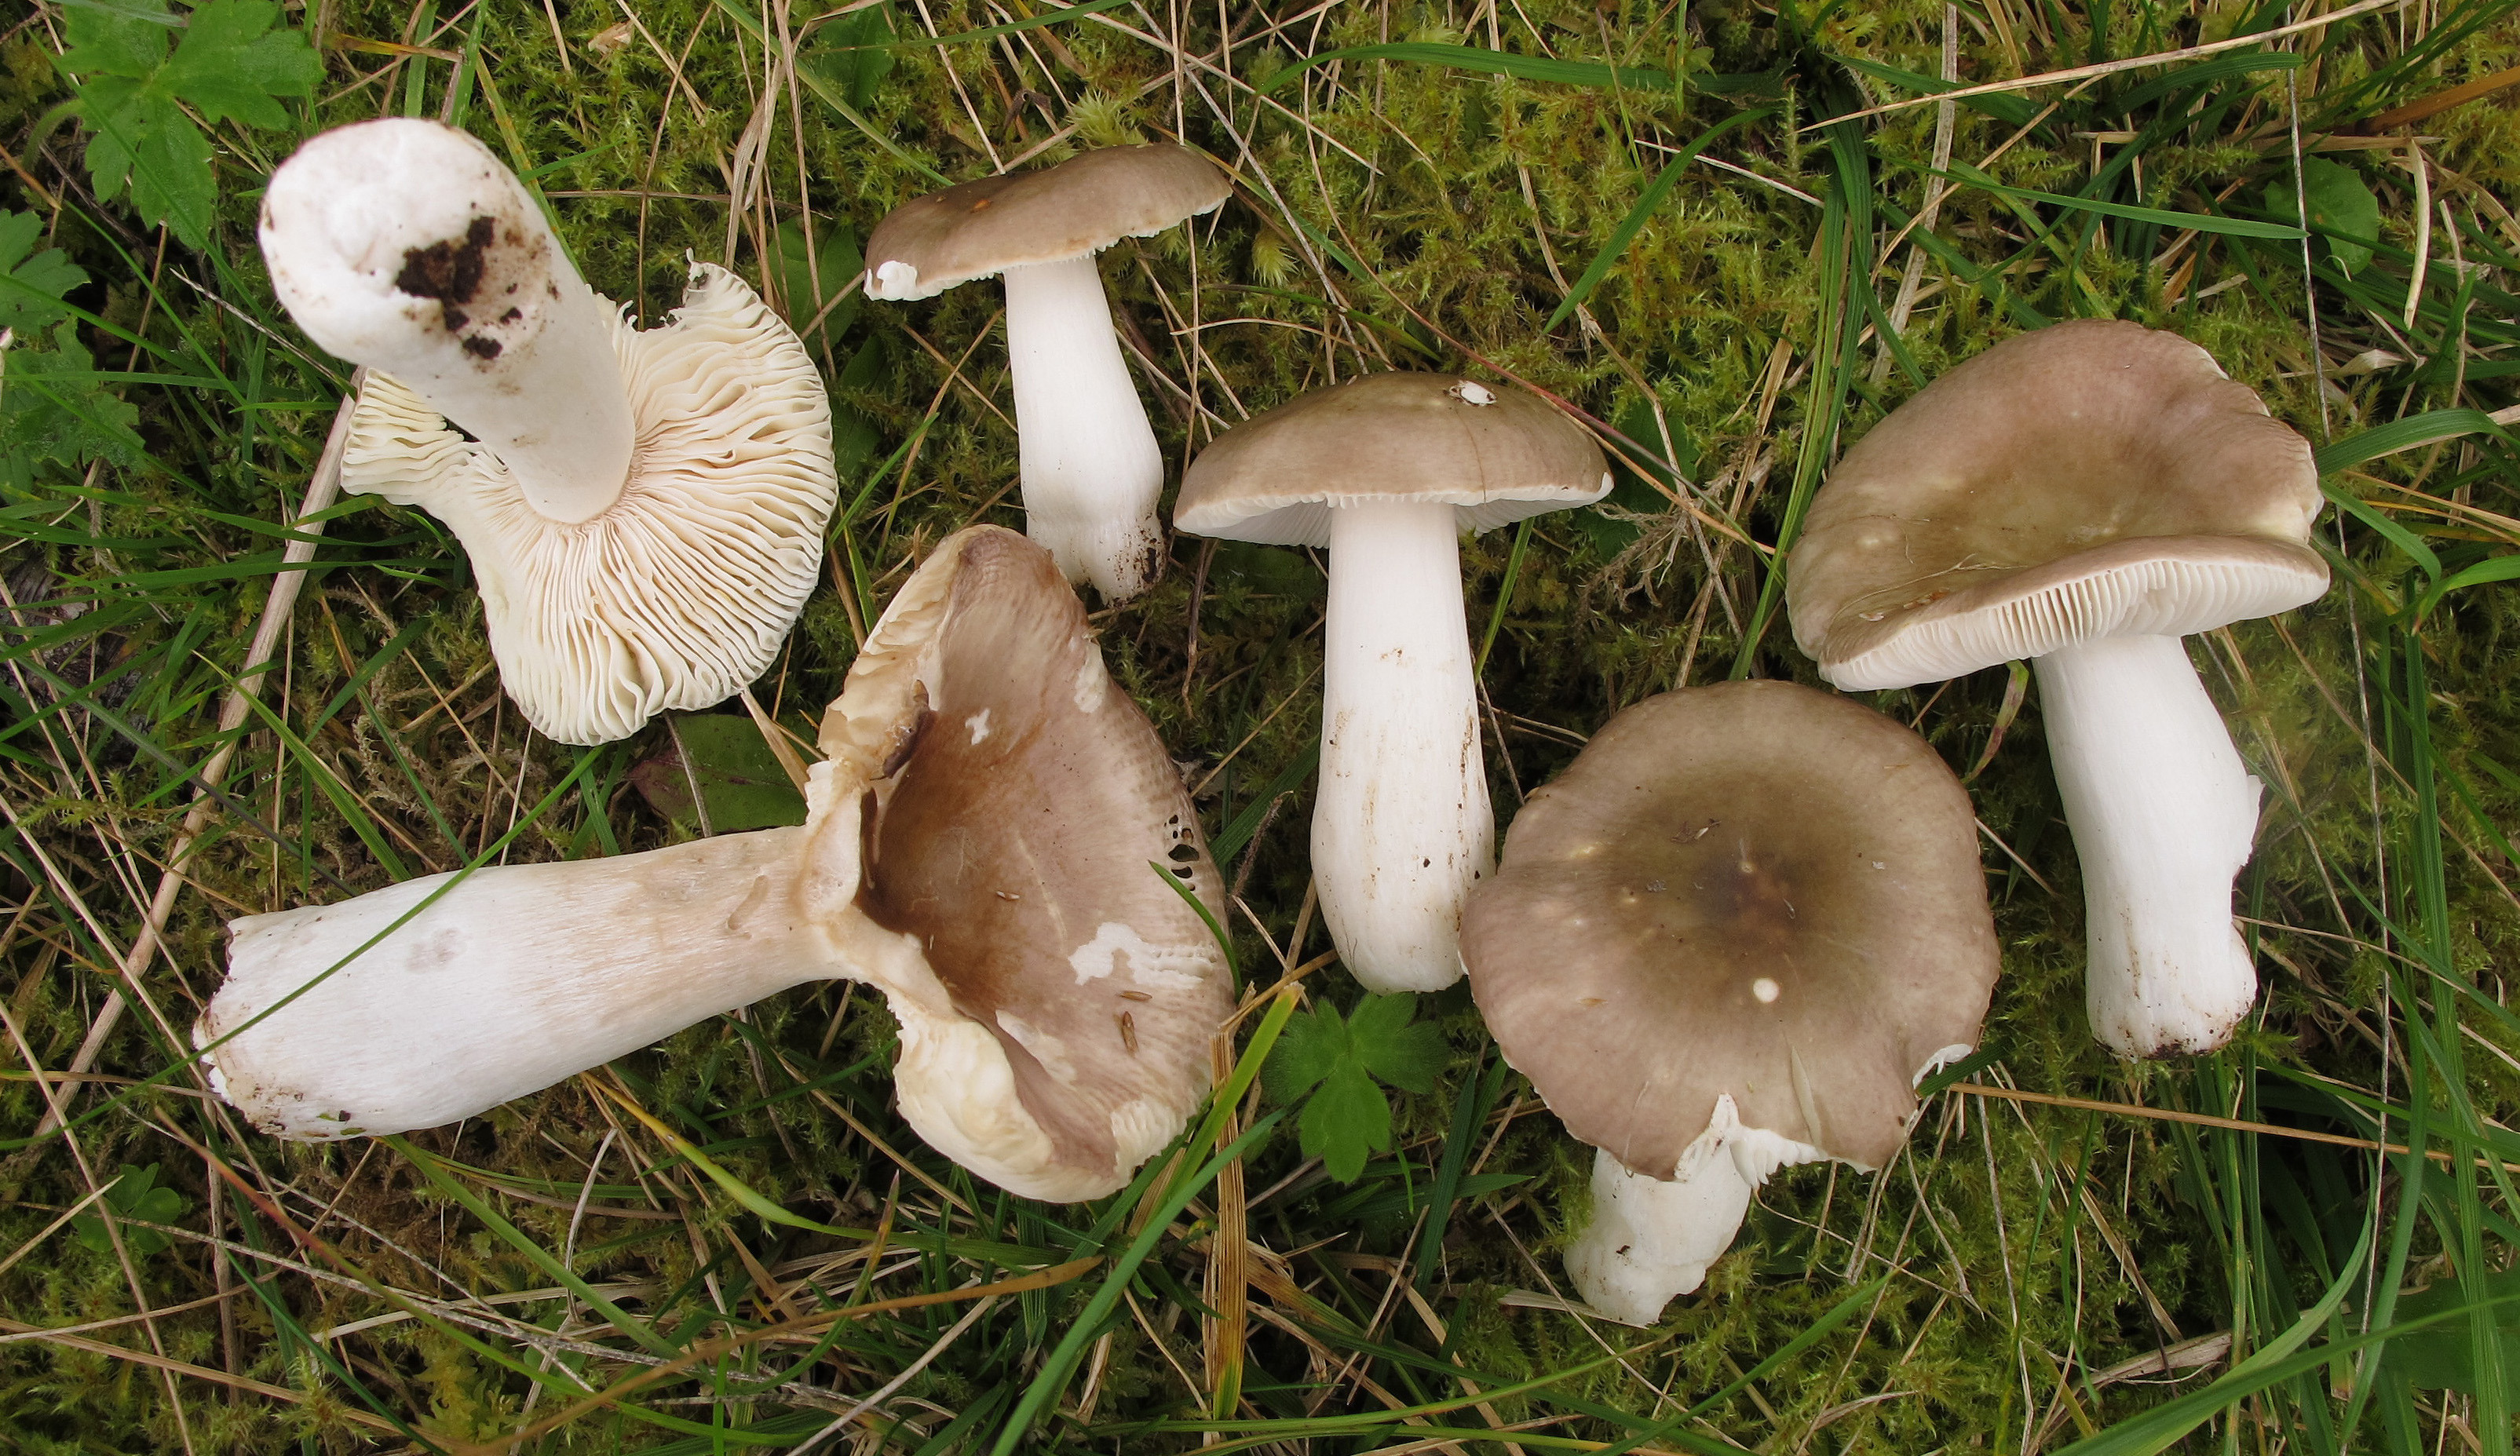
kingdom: Fungi
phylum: Basidiomycota
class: Agaricomycetes
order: Russulales
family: Russulaceae
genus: Russula
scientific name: Russula gracillima
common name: Slender brittlegill
